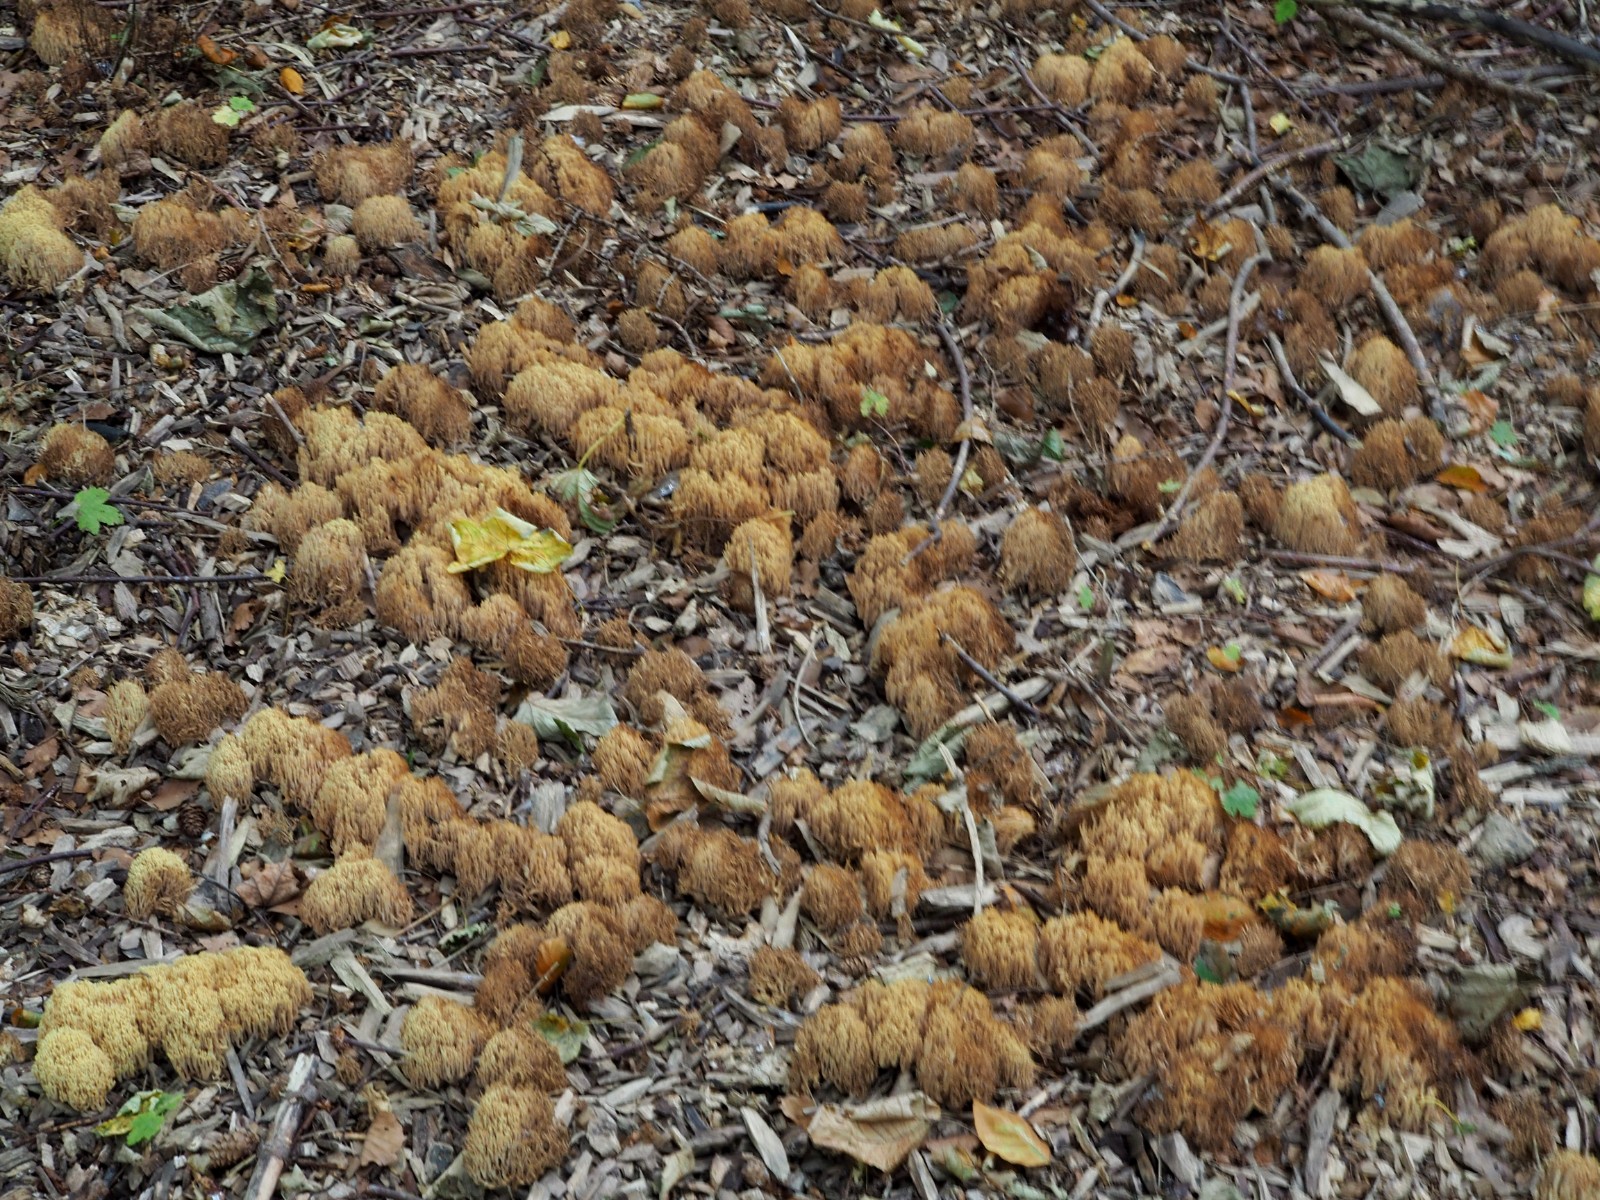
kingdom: Fungi
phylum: Basidiomycota
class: Agaricomycetes
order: Gomphales
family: Gomphaceae
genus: Ramaria
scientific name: Ramaria stricta
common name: rank koralsvamp
